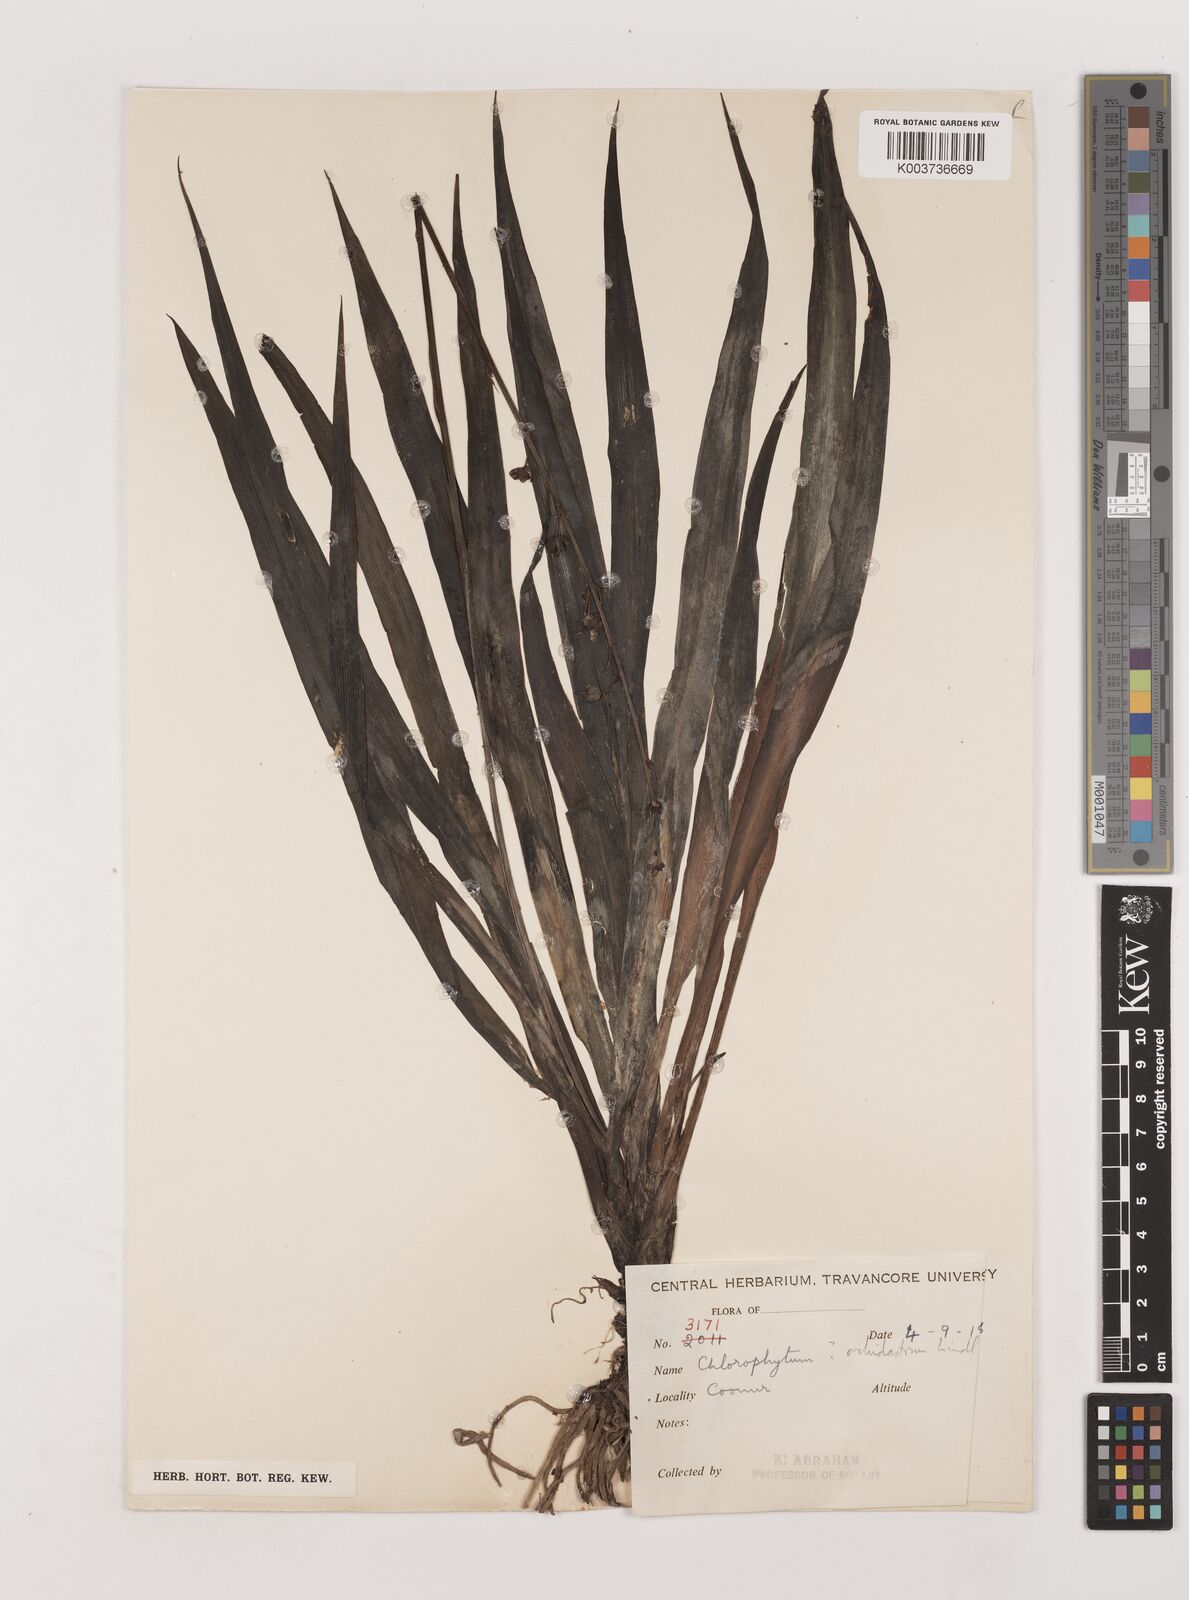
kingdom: Plantae
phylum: Tracheophyta
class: Liliopsida
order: Asparagales
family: Asparagaceae
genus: Chlorophytum
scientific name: Chlorophytum comosum
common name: Spider plant
